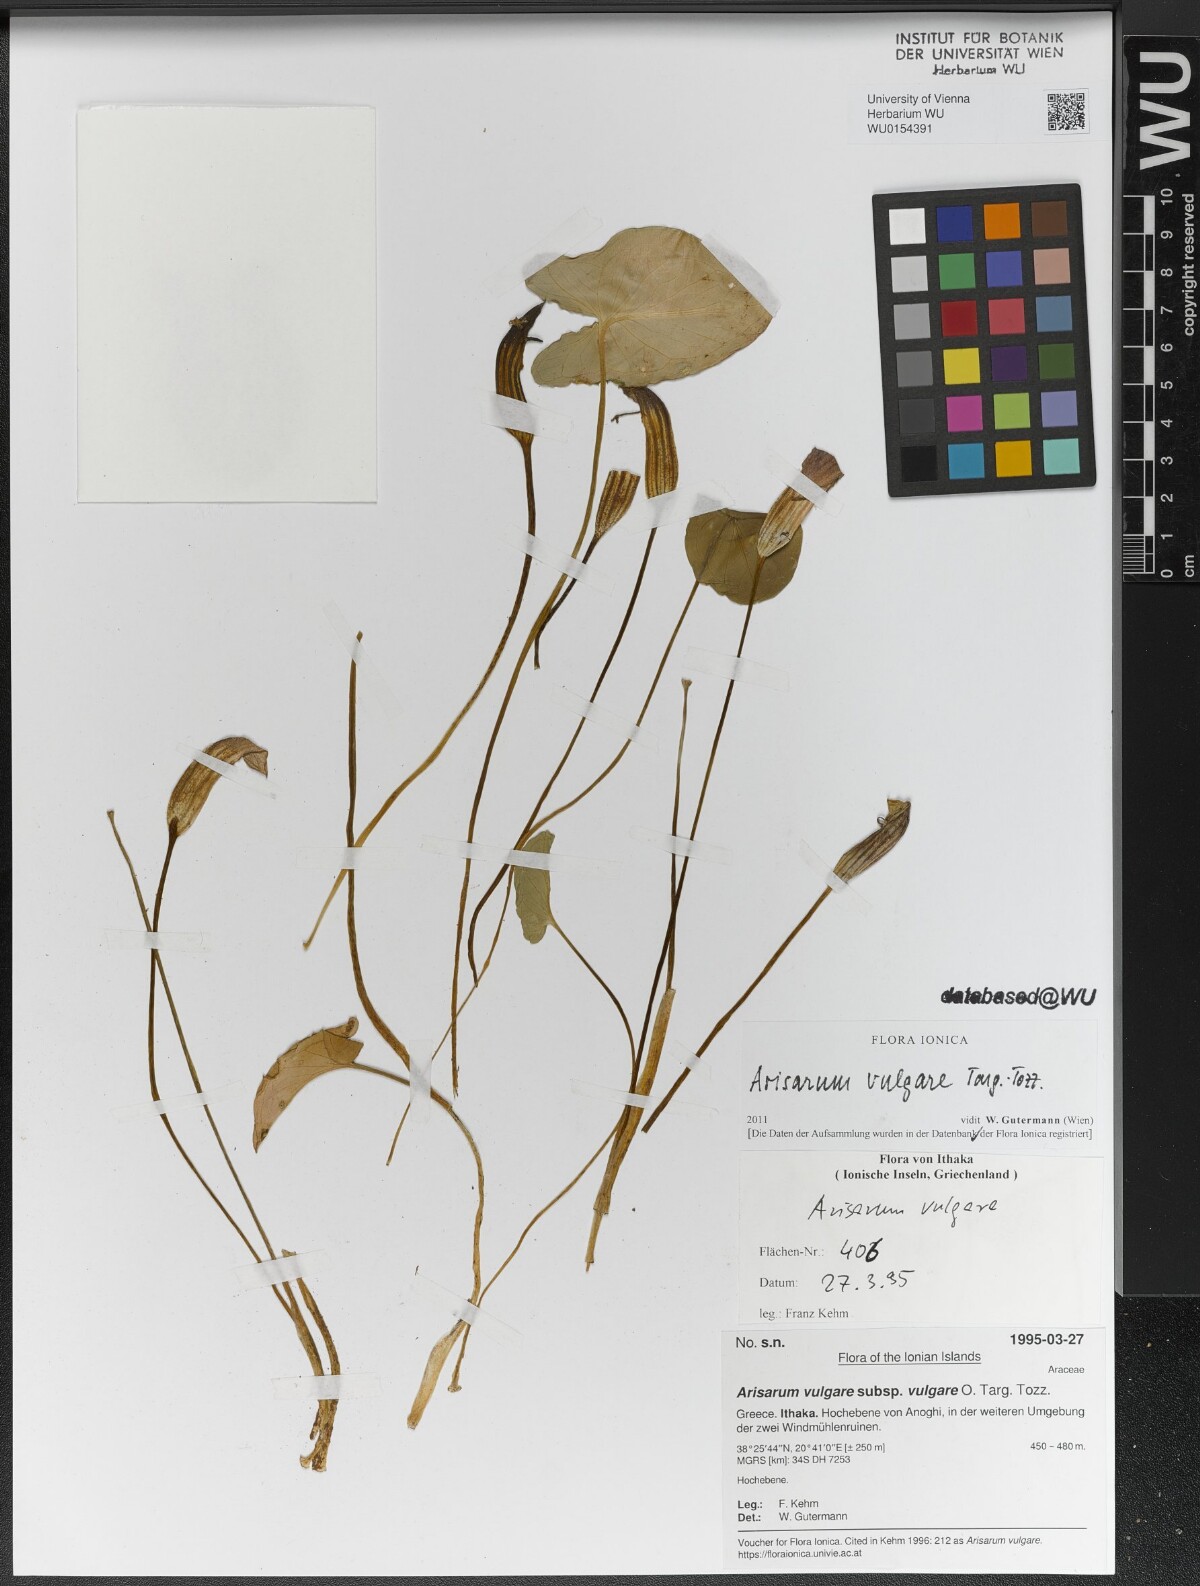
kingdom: Plantae
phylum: Tracheophyta
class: Liliopsida
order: Alismatales
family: Araceae
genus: Arisarum
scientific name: Arisarum vulgare
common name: Common arisarum
